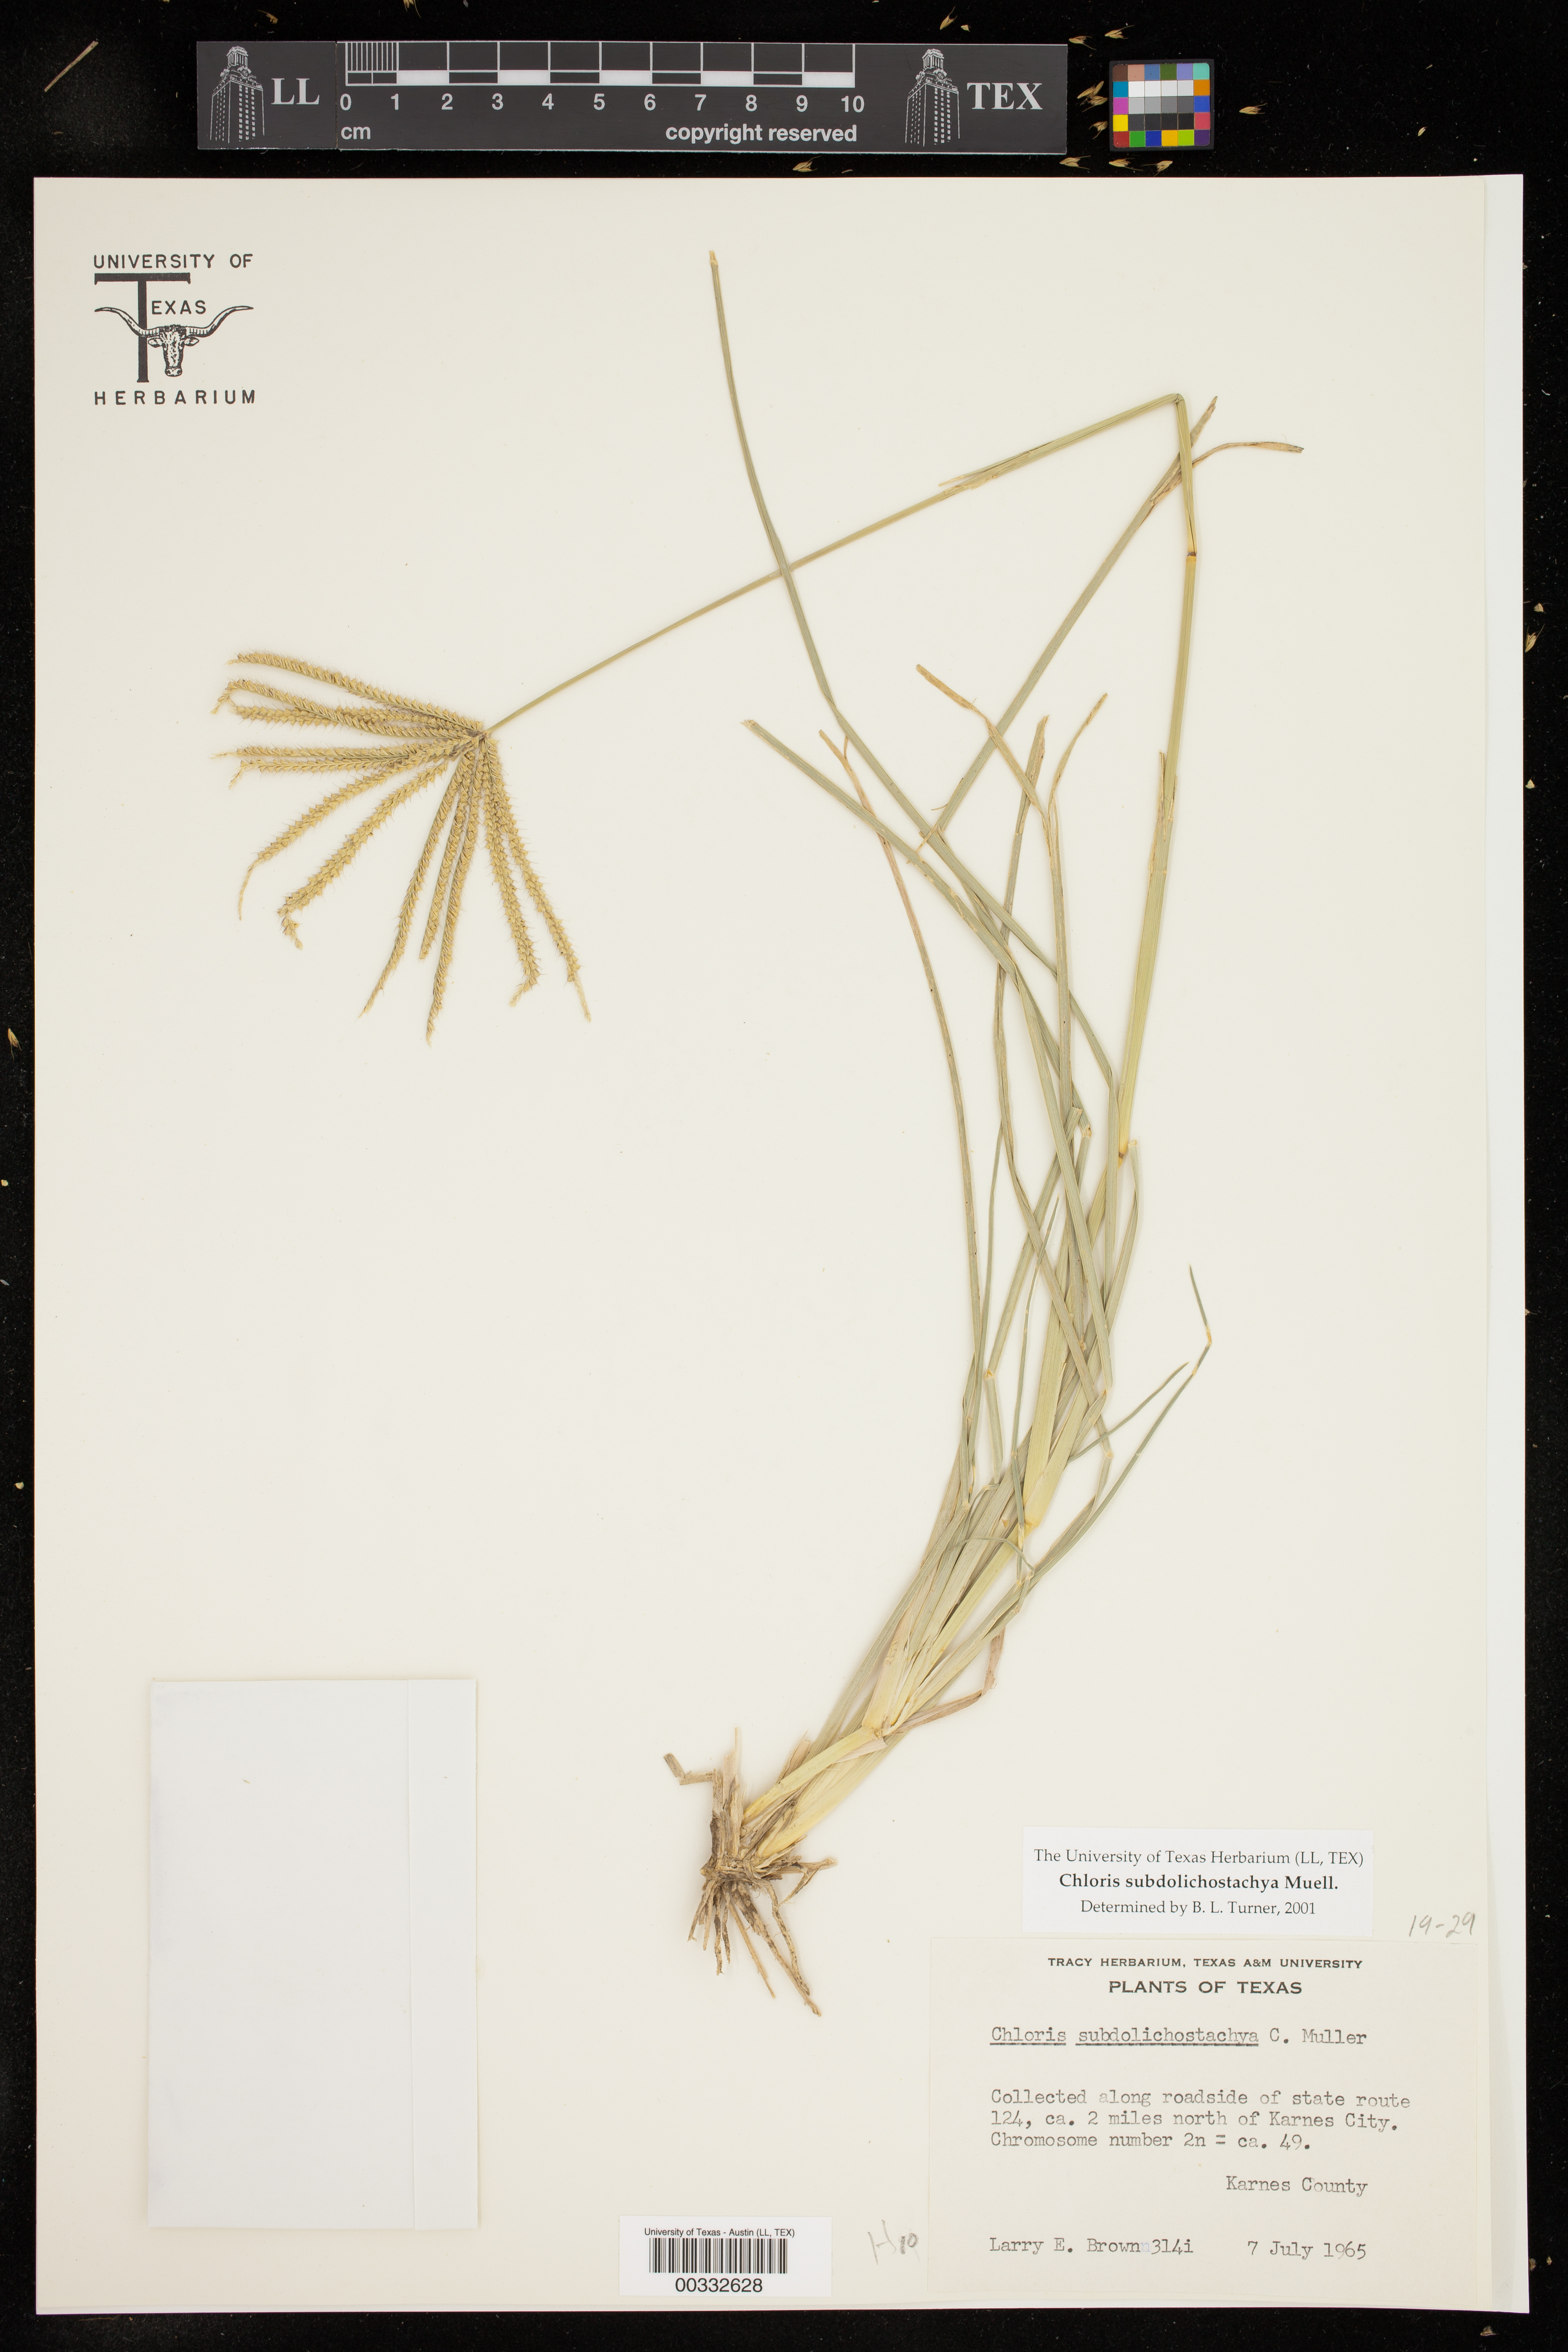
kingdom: Plantae
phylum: Tracheophyta
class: Liliopsida
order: Poales
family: Poaceae
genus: Chloris
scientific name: Chloris subdolichostachya
